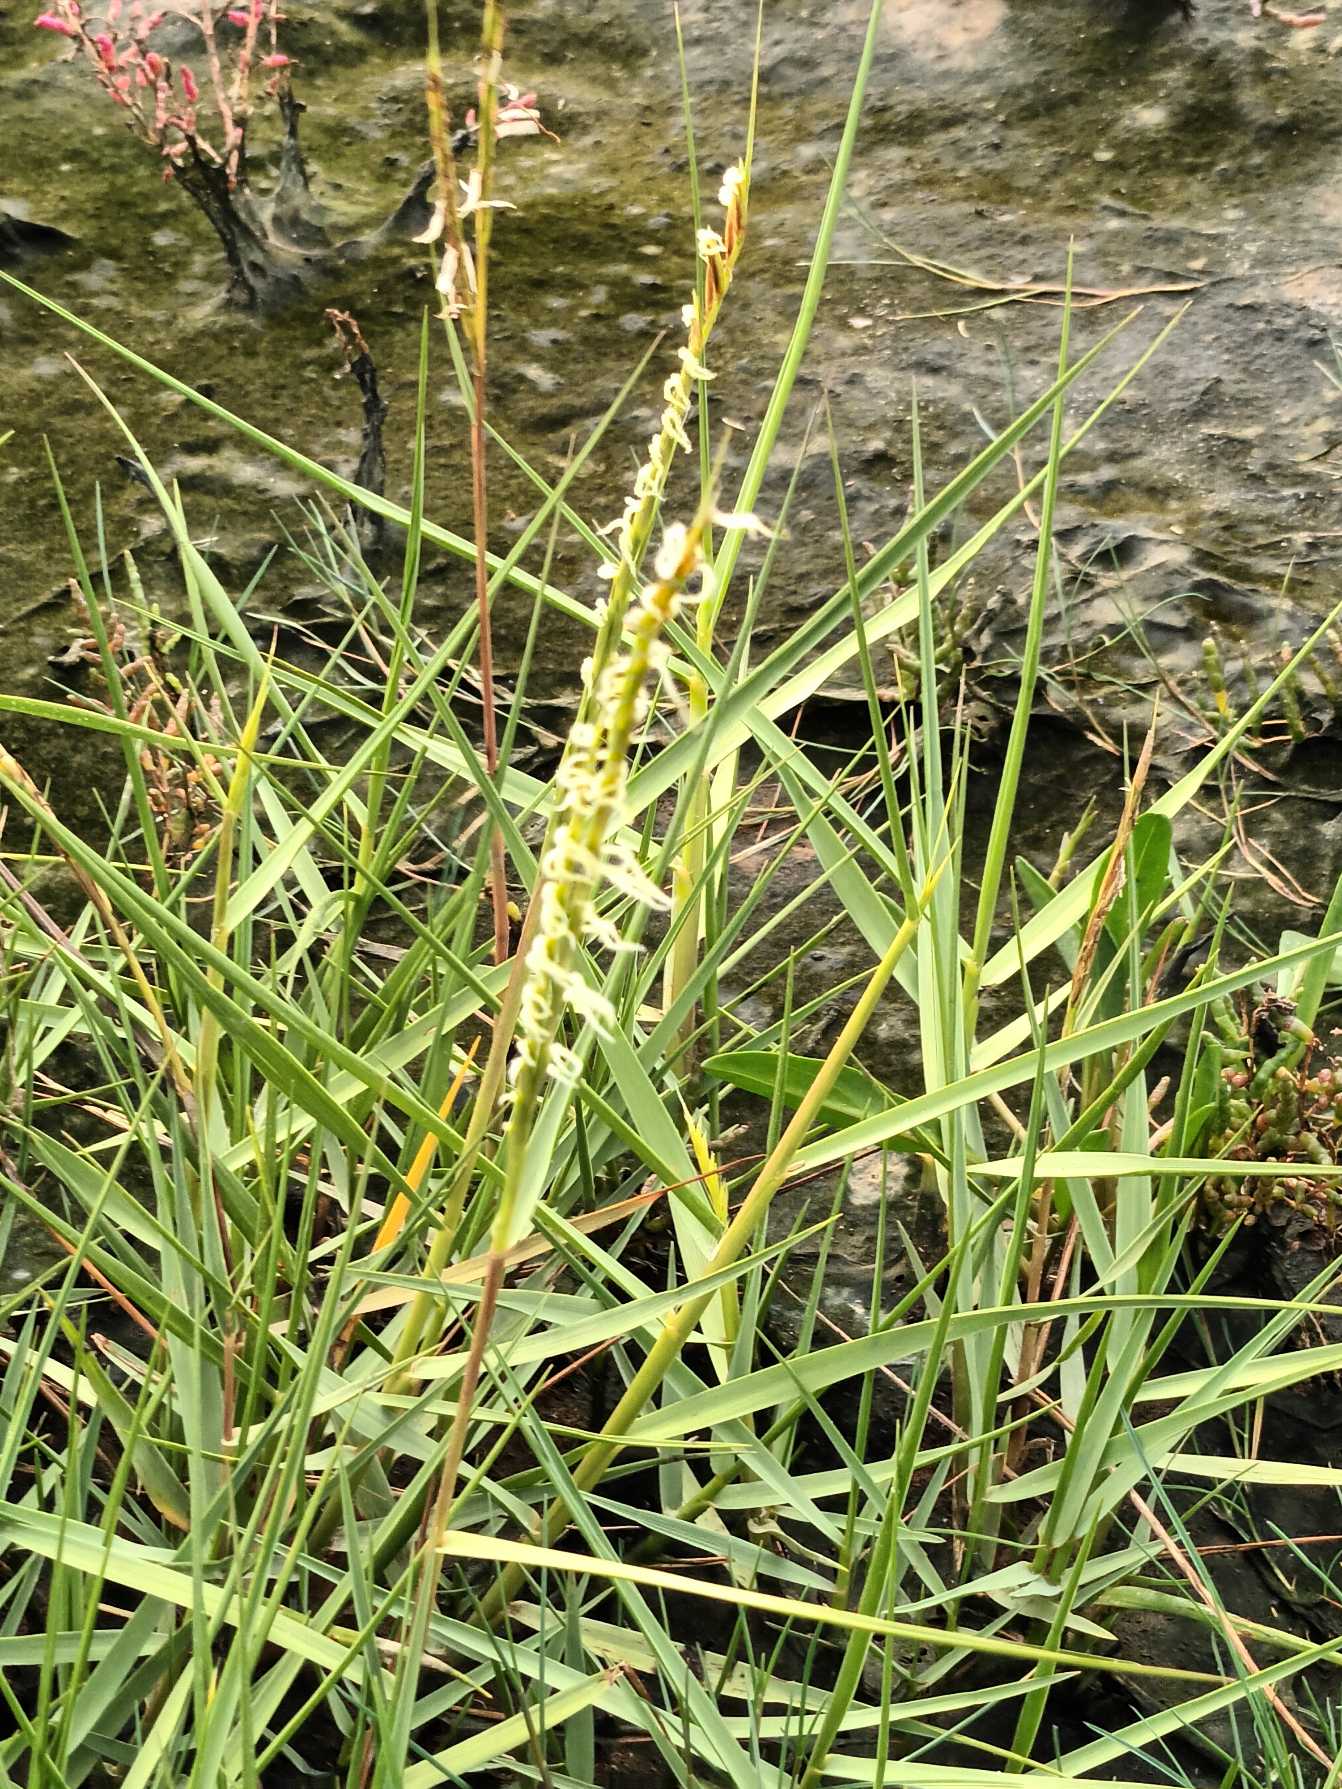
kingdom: Plantae
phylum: Tracheophyta
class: Liliopsida
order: Poales
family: Poaceae
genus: Sporobolus
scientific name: Sporobolus townsendii
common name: Hybrid-vadegræs
